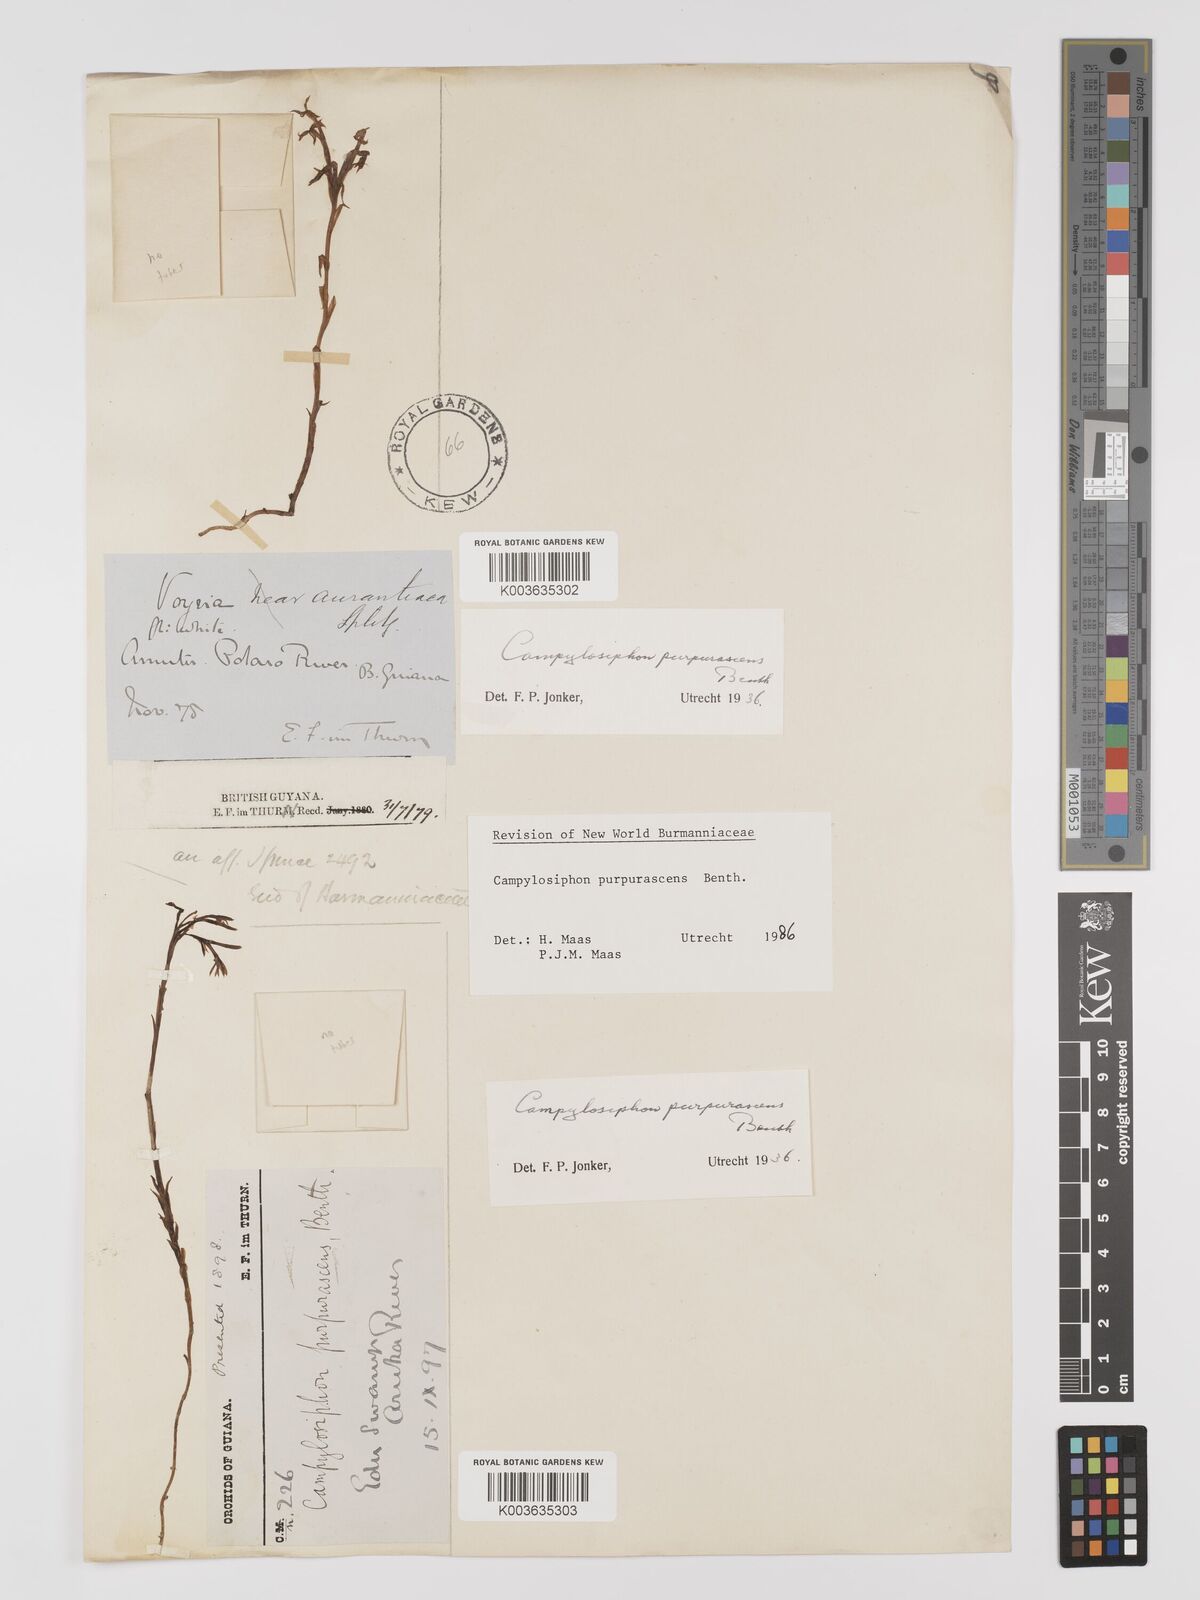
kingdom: Plantae
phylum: Tracheophyta
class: Liliopsida
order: Dioscoreales
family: Burmanniaceae
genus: Campylosiphon
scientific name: Campylosiphon purpurascens
